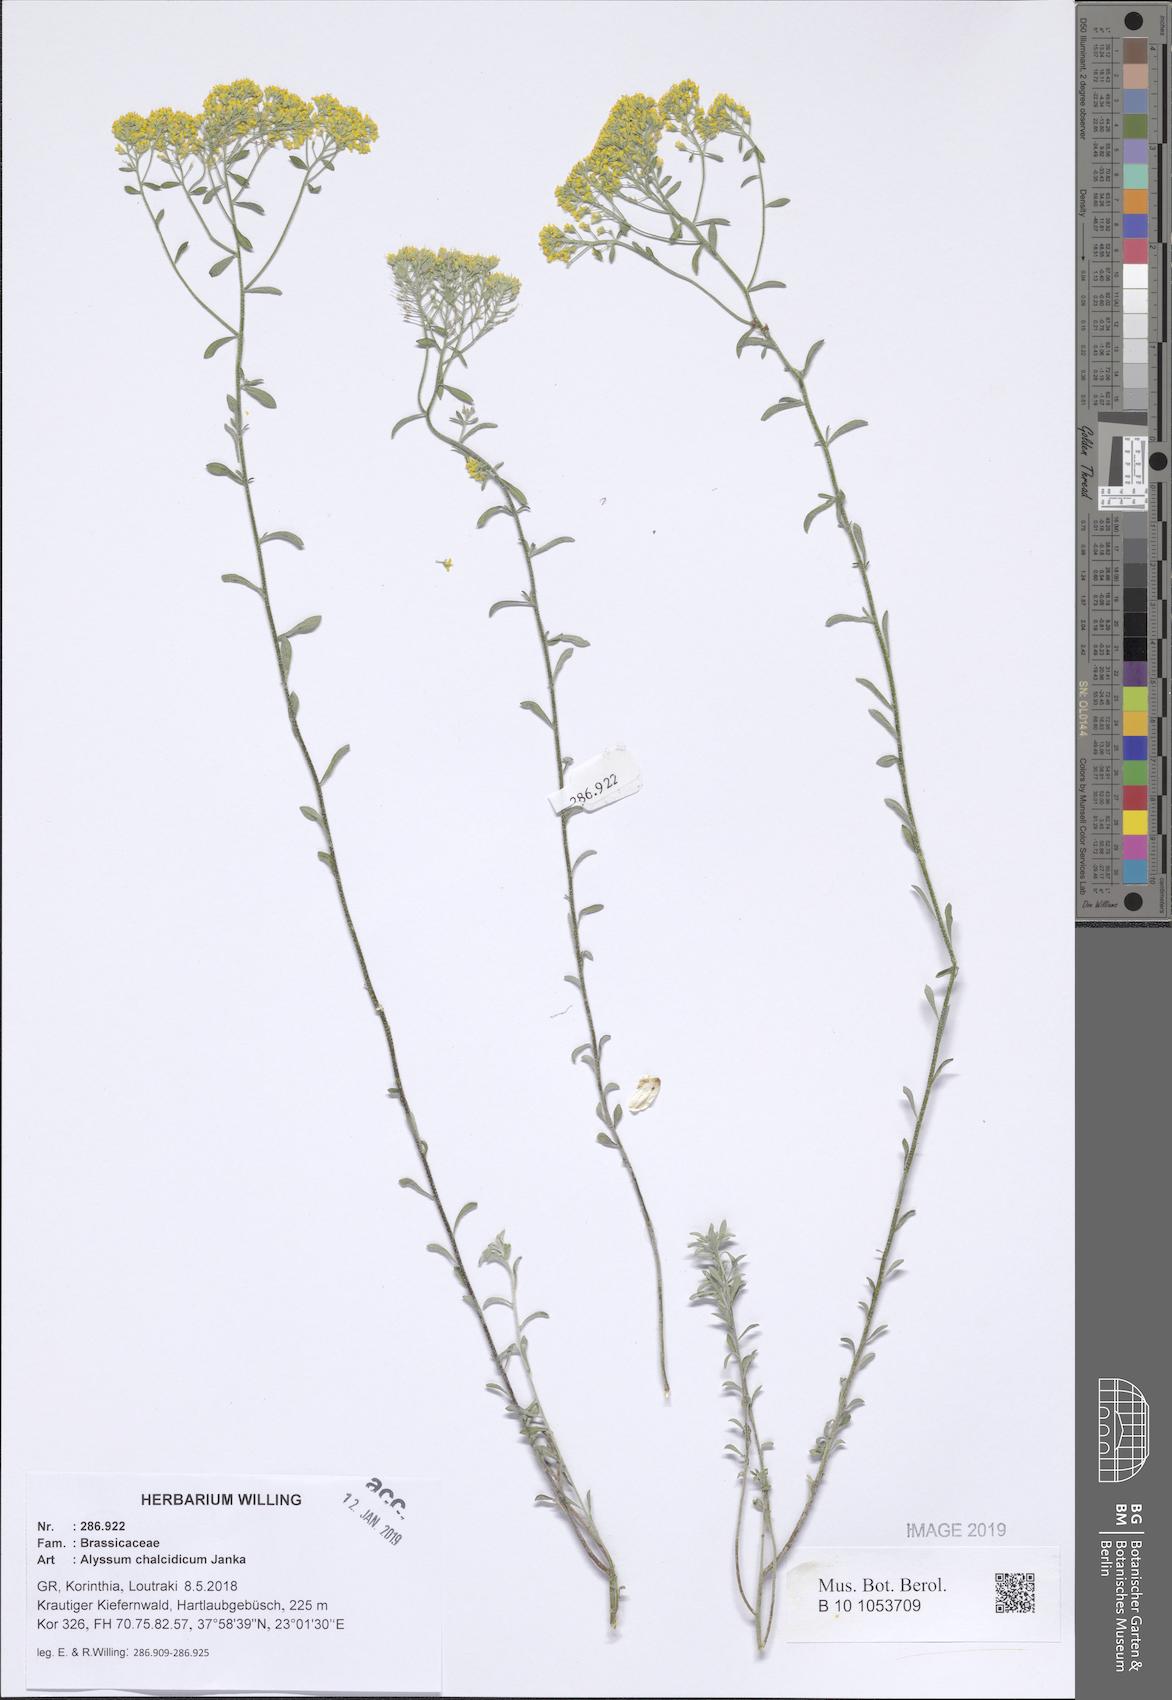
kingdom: Plantae
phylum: Tracheophyta
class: Magnoliopsida
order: Brassicales
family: Brassicaceae
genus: Odontarrhena
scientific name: Odontarrhena chalcidica
